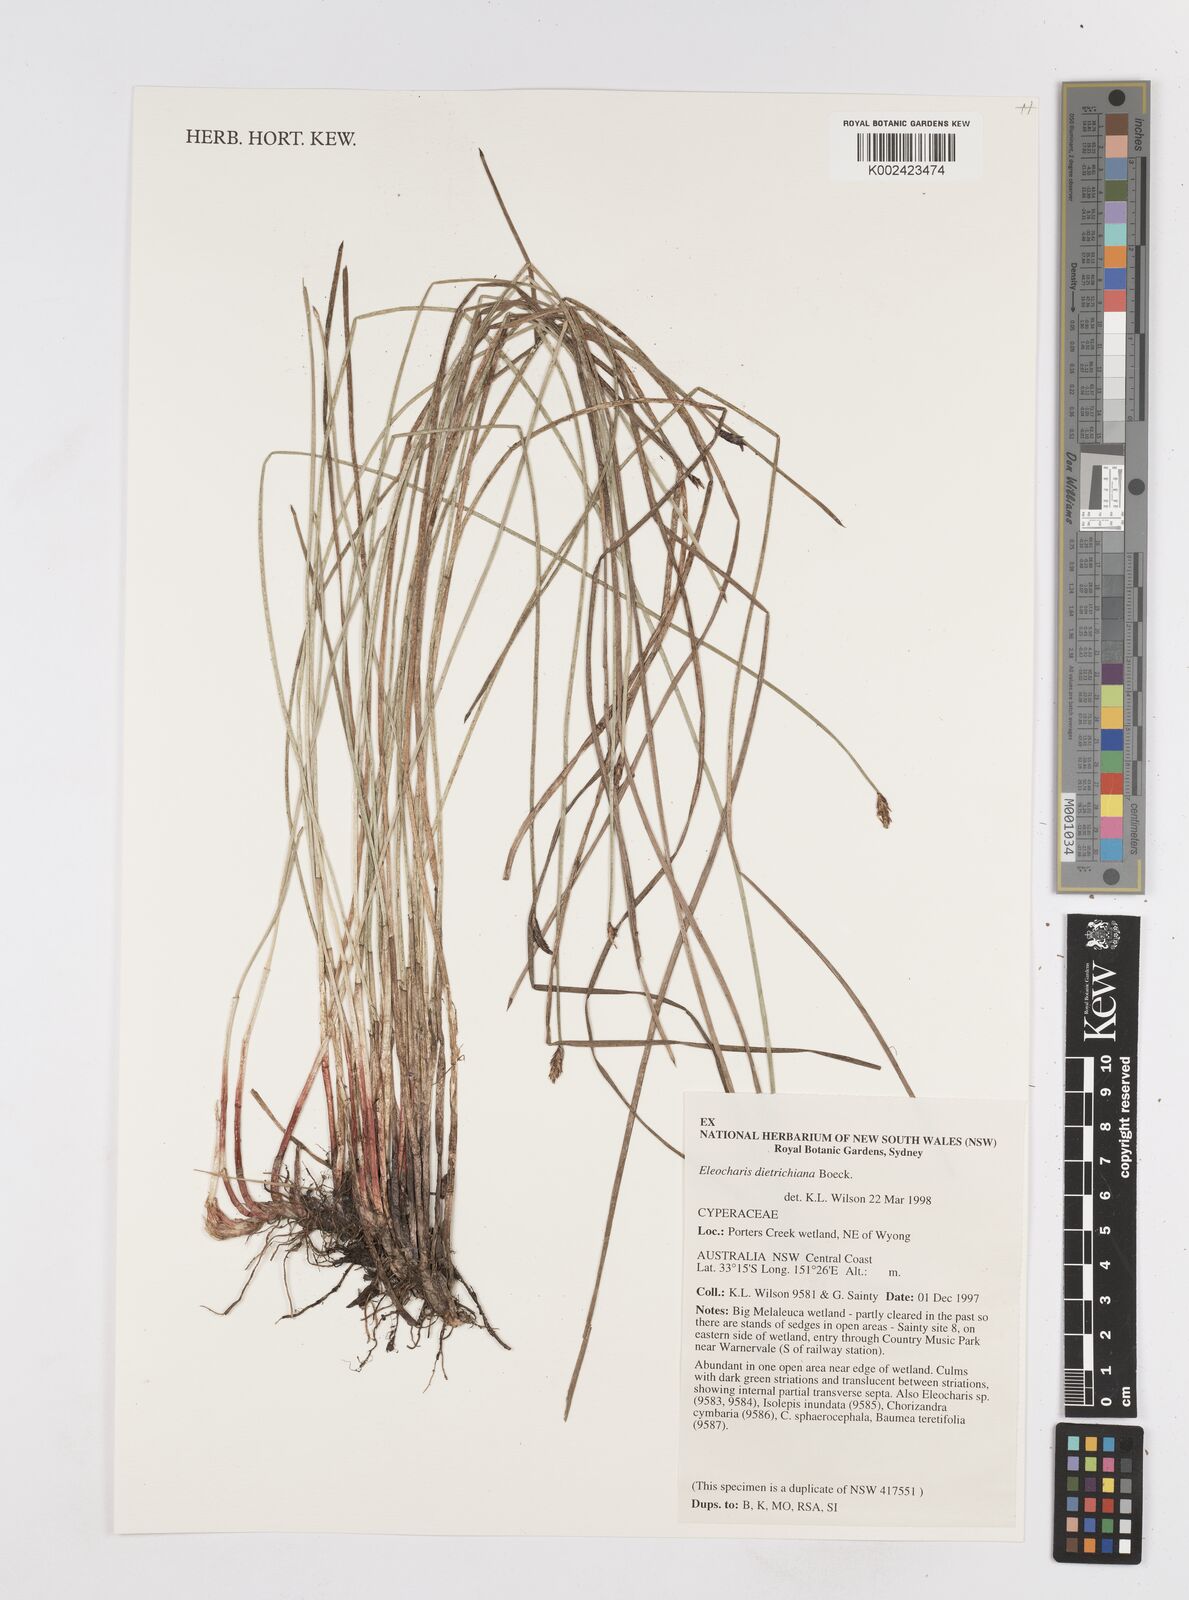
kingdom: Plantae
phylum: Tracheophyta
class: Liliopsida
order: Poales
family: Cyperaceae
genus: Eleocharis
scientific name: Eleocharis dietrichiana
